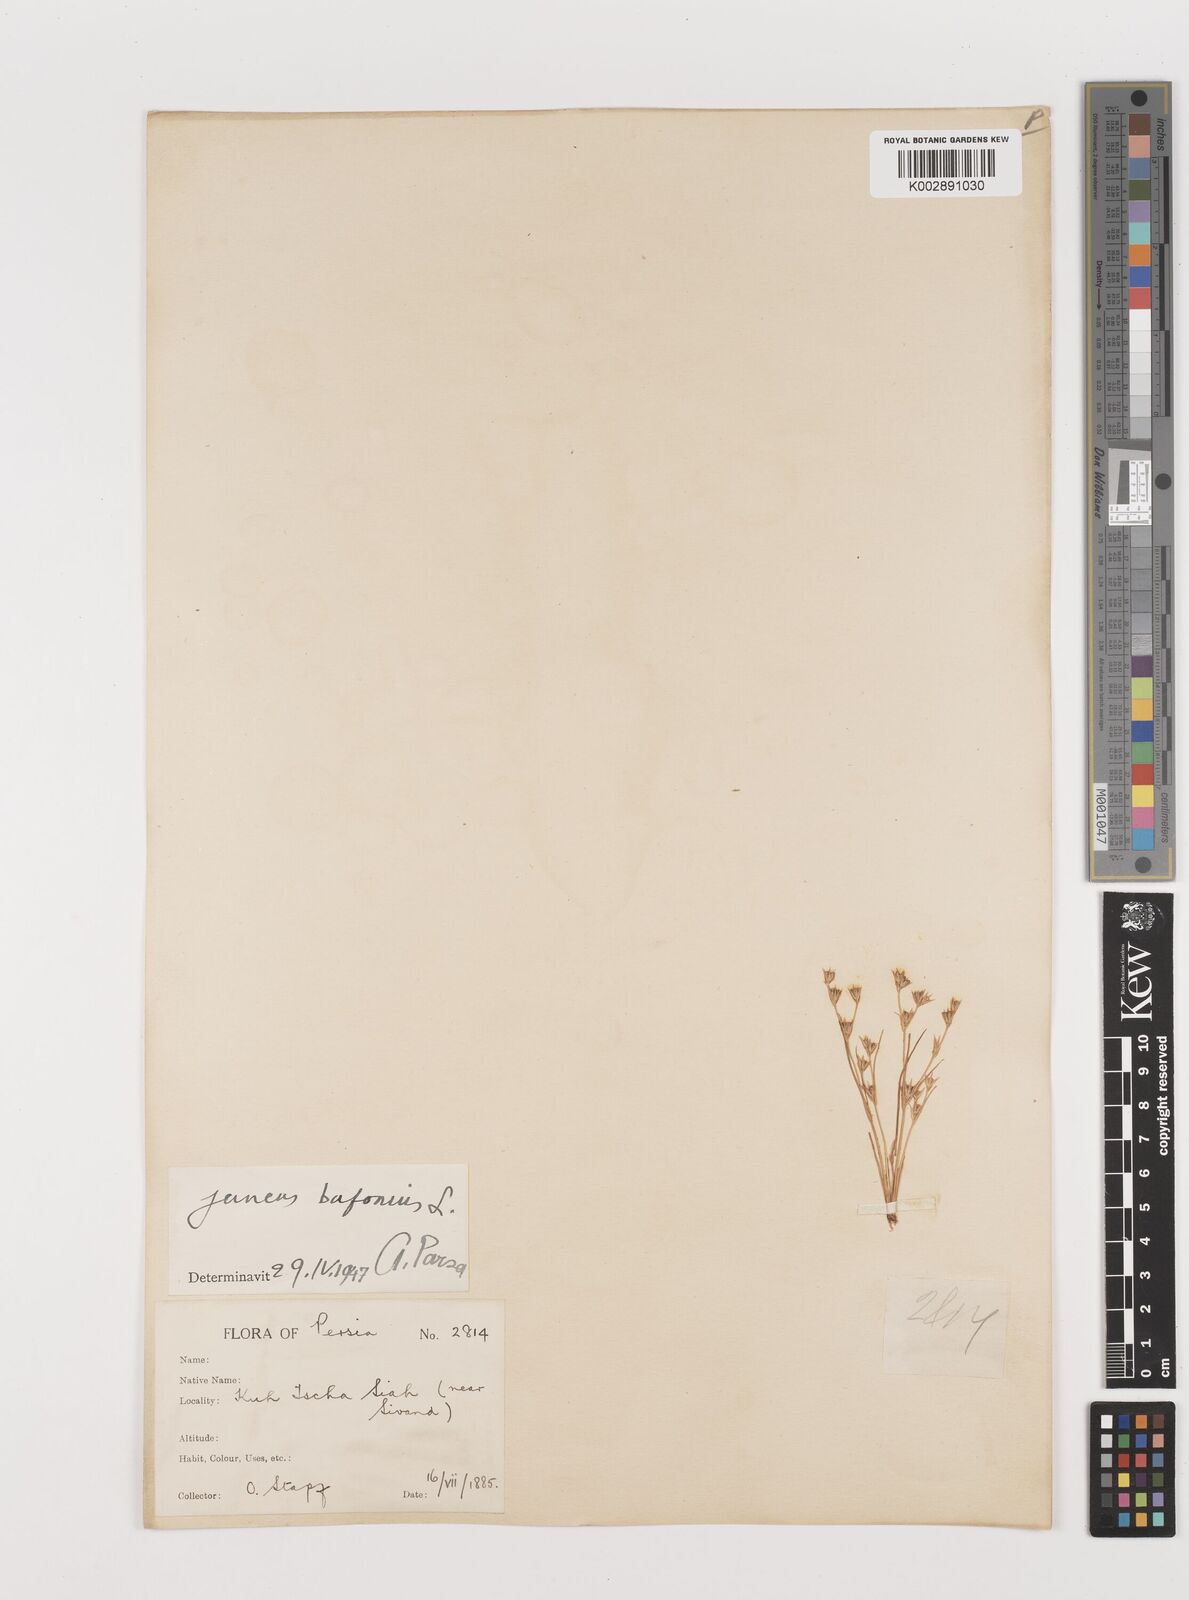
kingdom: Plantae
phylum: Tracheophyta
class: Liliopsida
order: Poales
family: Juncaceae
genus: Juncus
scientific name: Juncus bufonius
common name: Toad rush
